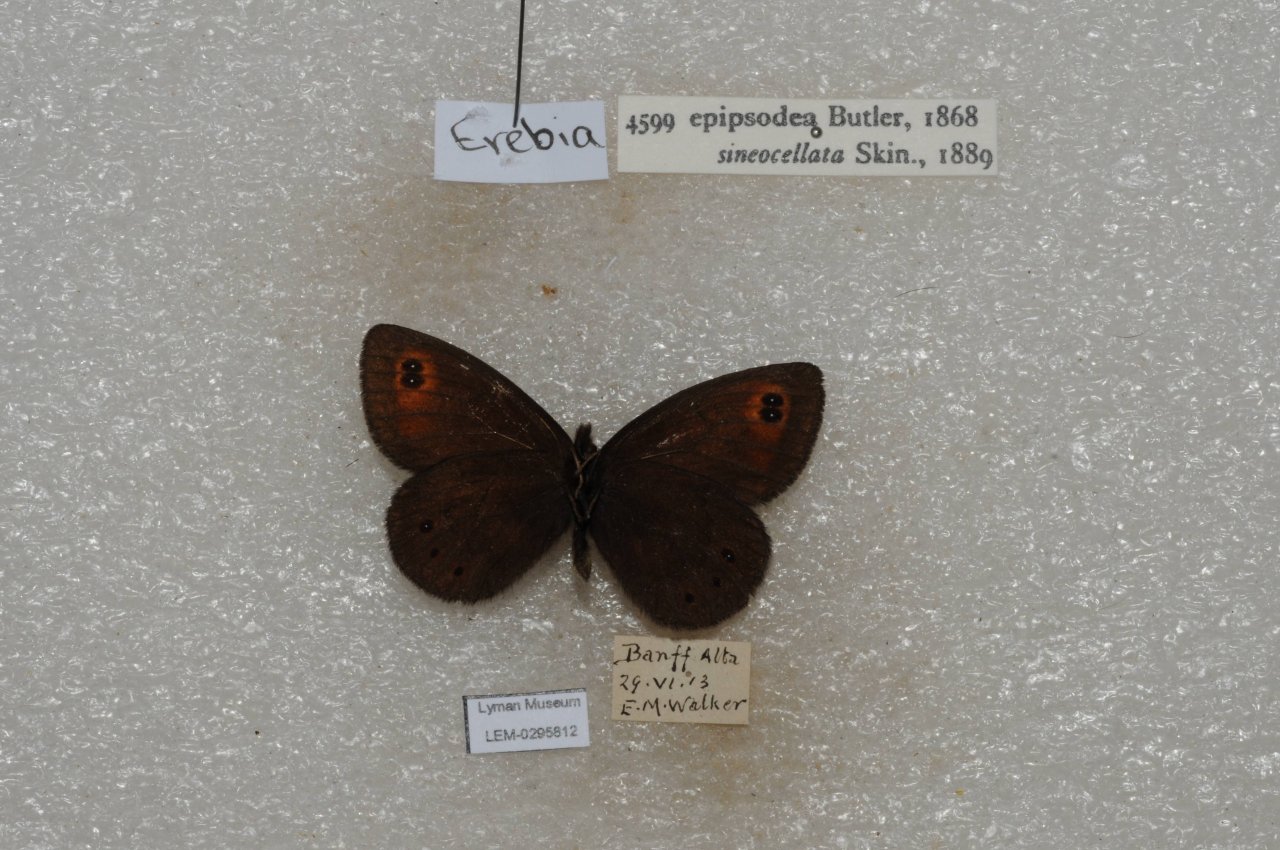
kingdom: Animalia
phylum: Arthropoda
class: Insecta
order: Lepidoptera
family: Nymphalidae
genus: Erebia
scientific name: Erebia epipsodea
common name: Common Alpine
